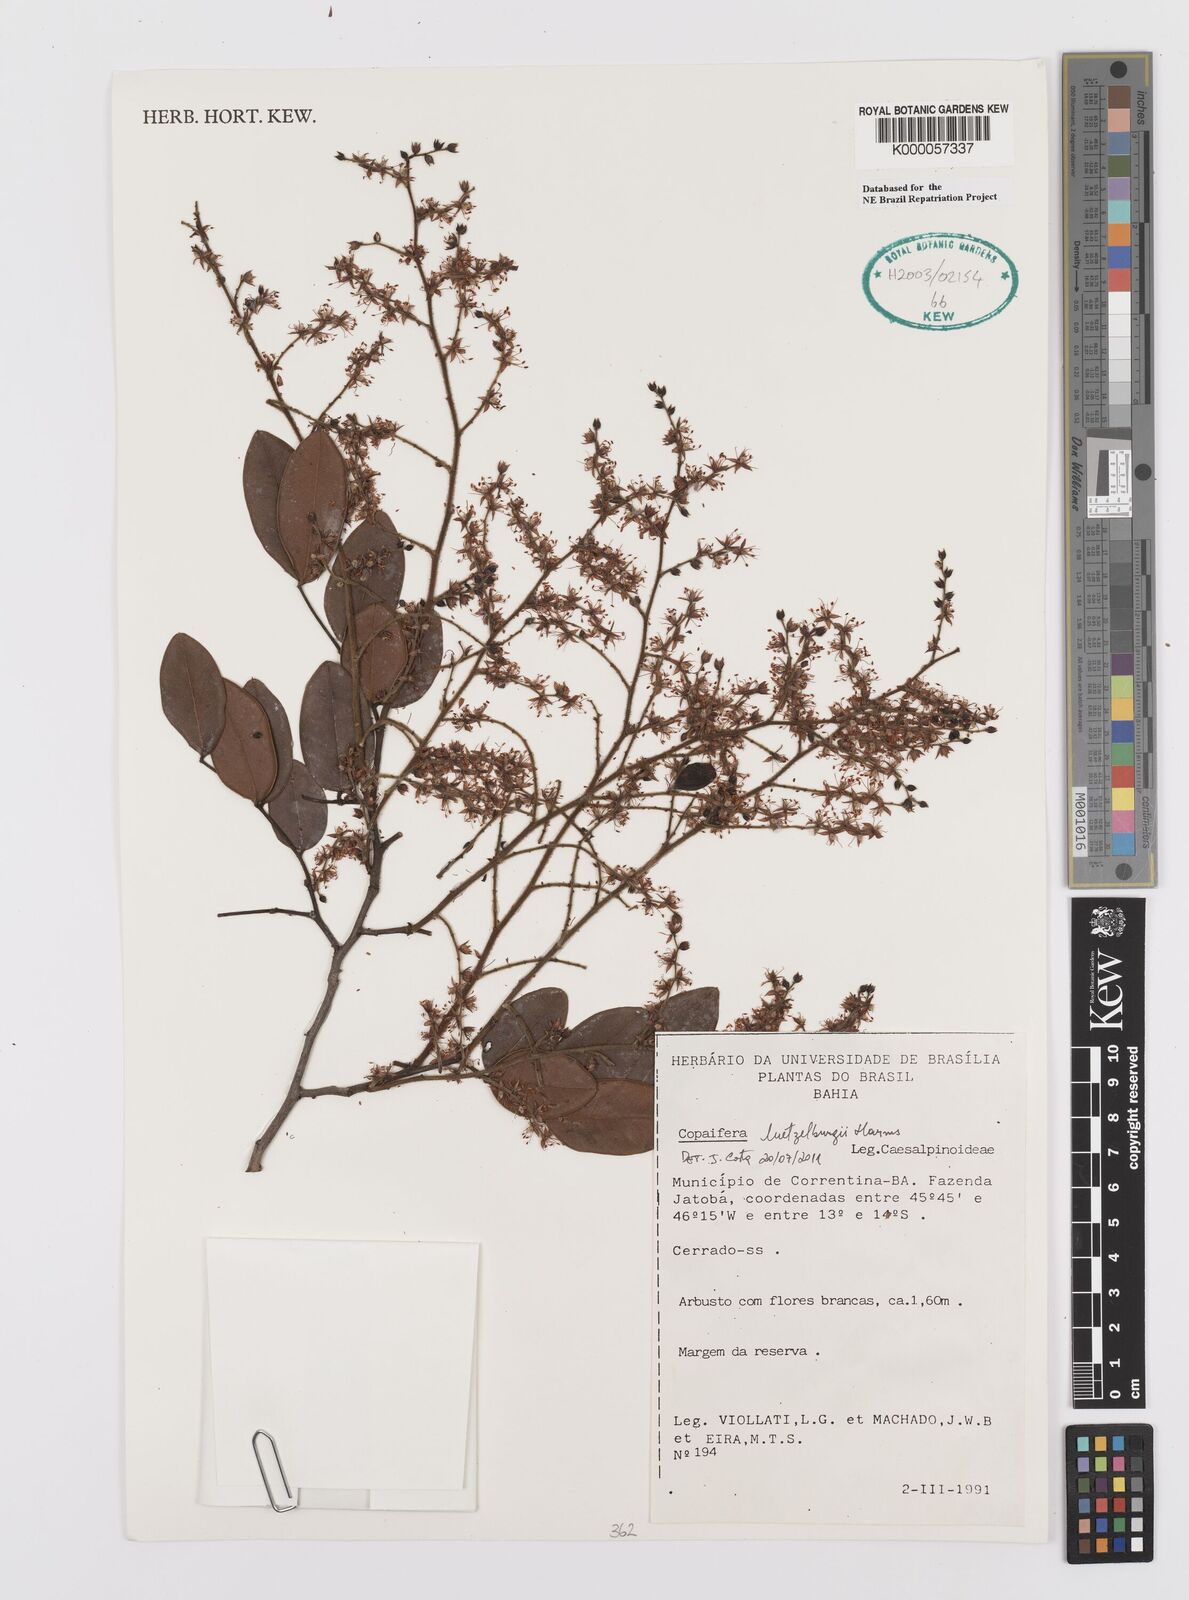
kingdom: Plantae
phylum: Tracheophyta
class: Magnoliopsida
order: Fabales
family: Fabaceae
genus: Copaifera
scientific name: Copaifera
